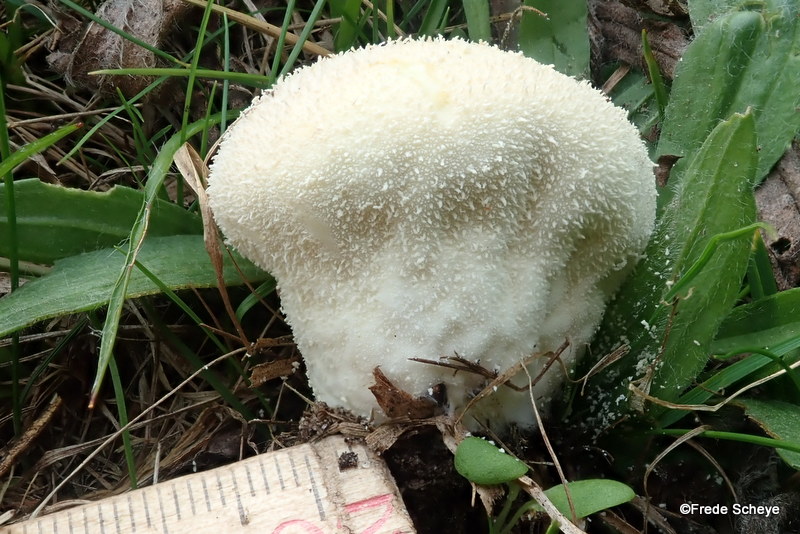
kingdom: Fungi
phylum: Basidiomycota
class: Agaricomycetes
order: Agaricales
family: Lycoperdaceae
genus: Lycoperdon
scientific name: Lycoperdon pratense
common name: flad støvbold
